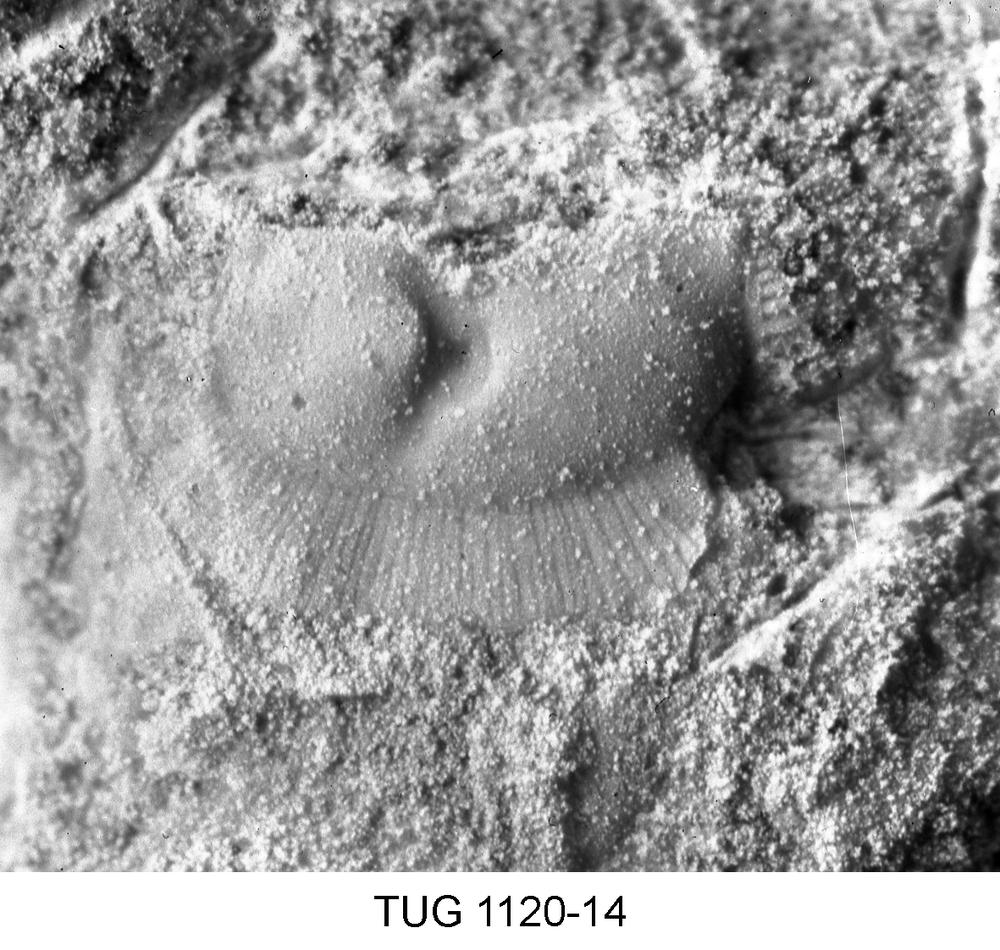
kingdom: Animalia
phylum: Arthropoda
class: Ostracoda
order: Palaeocopida
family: Oepikiidae
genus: Oepikium
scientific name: Oepikium
